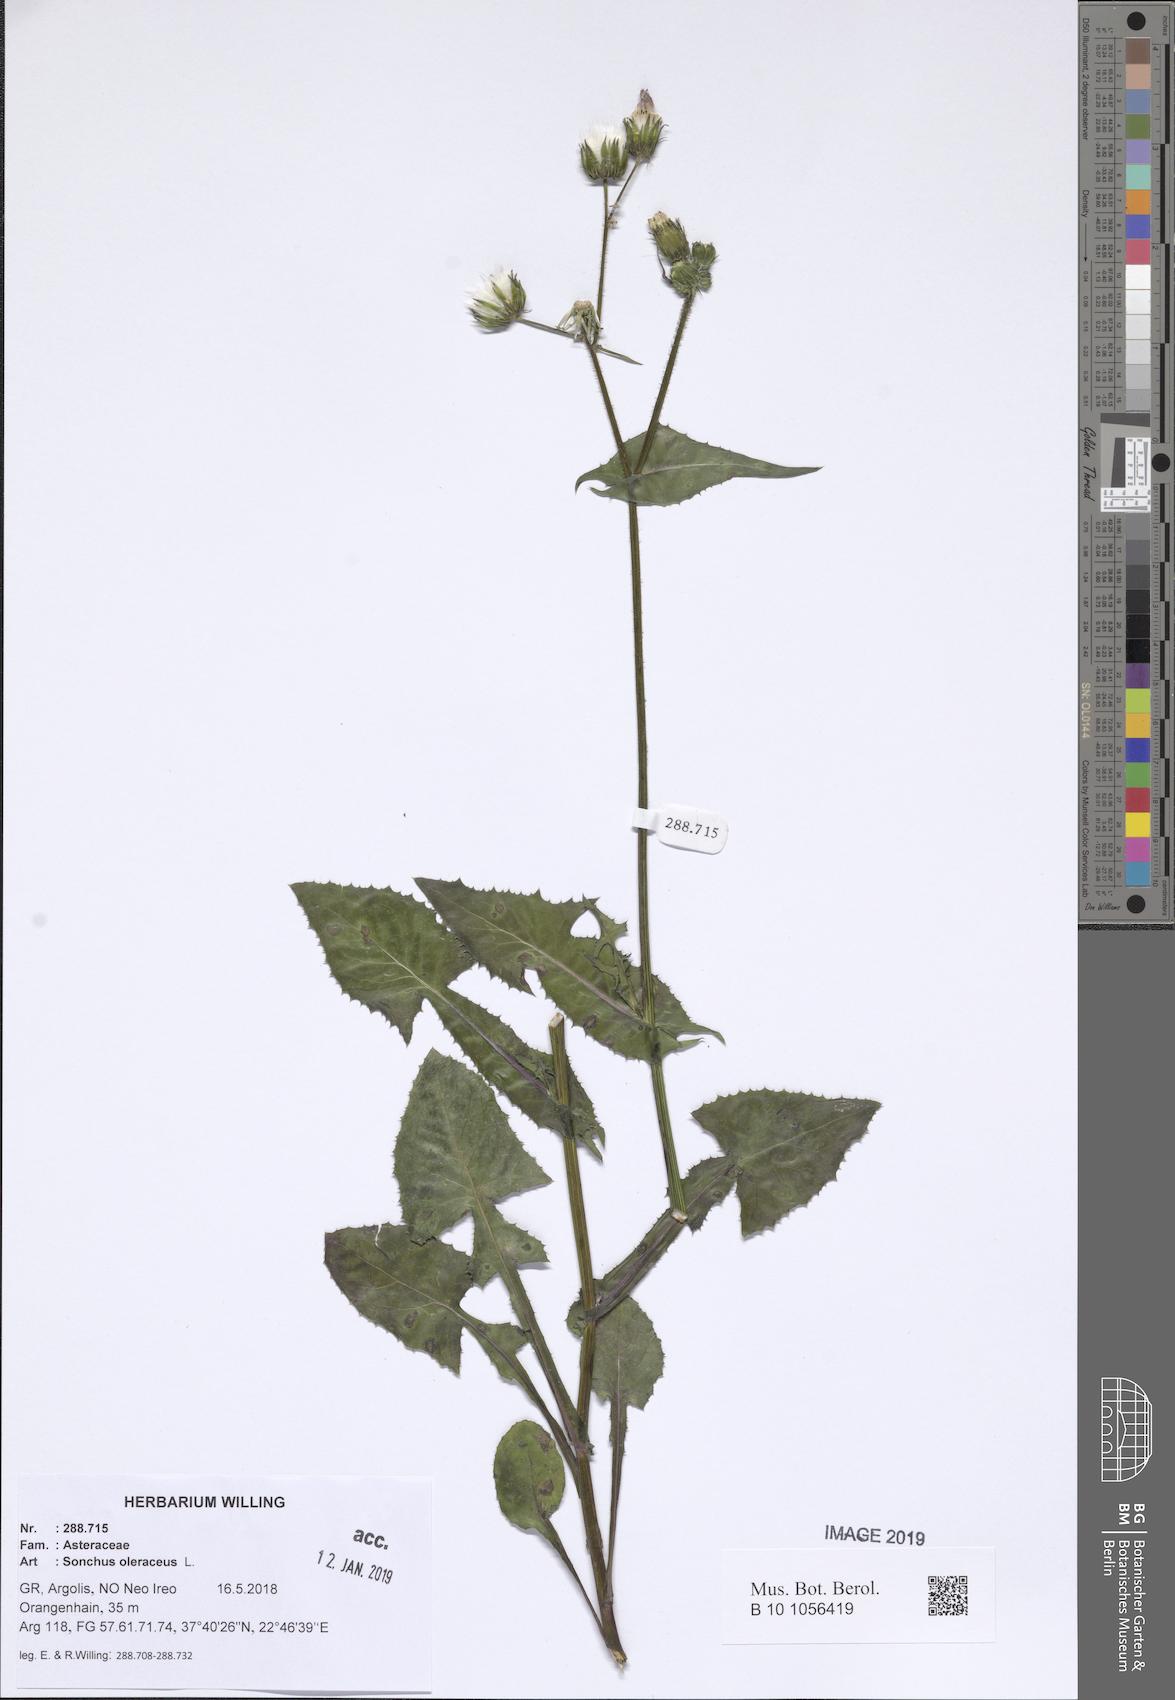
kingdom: Plantae
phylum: Tracheophyta
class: Magnoliopsida
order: Asterales
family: Asteraceae
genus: Sonchus
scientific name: Sonchus oleraceus
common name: Common sowthistle
